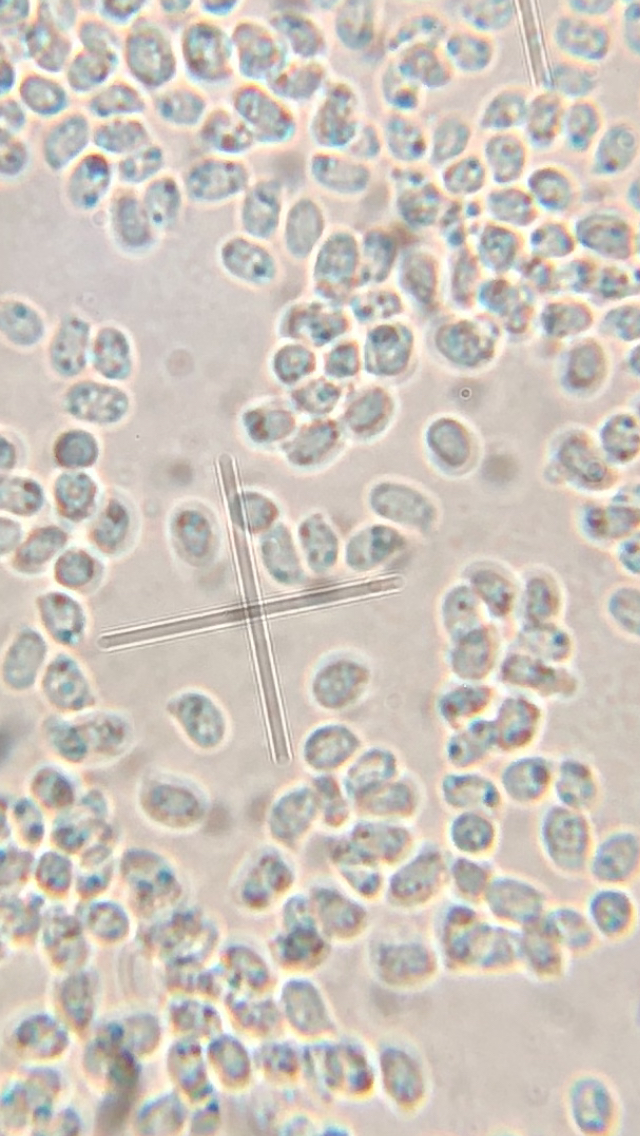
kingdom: Fungi
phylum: Basidiomycota
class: Agaricomycetes
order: Agaricales
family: Lyophyllaceae
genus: Ossicaulis
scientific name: Ossicaulis
